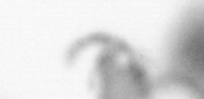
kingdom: Animalia
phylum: Annelida
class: Polychaeta
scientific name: Polychaeta
